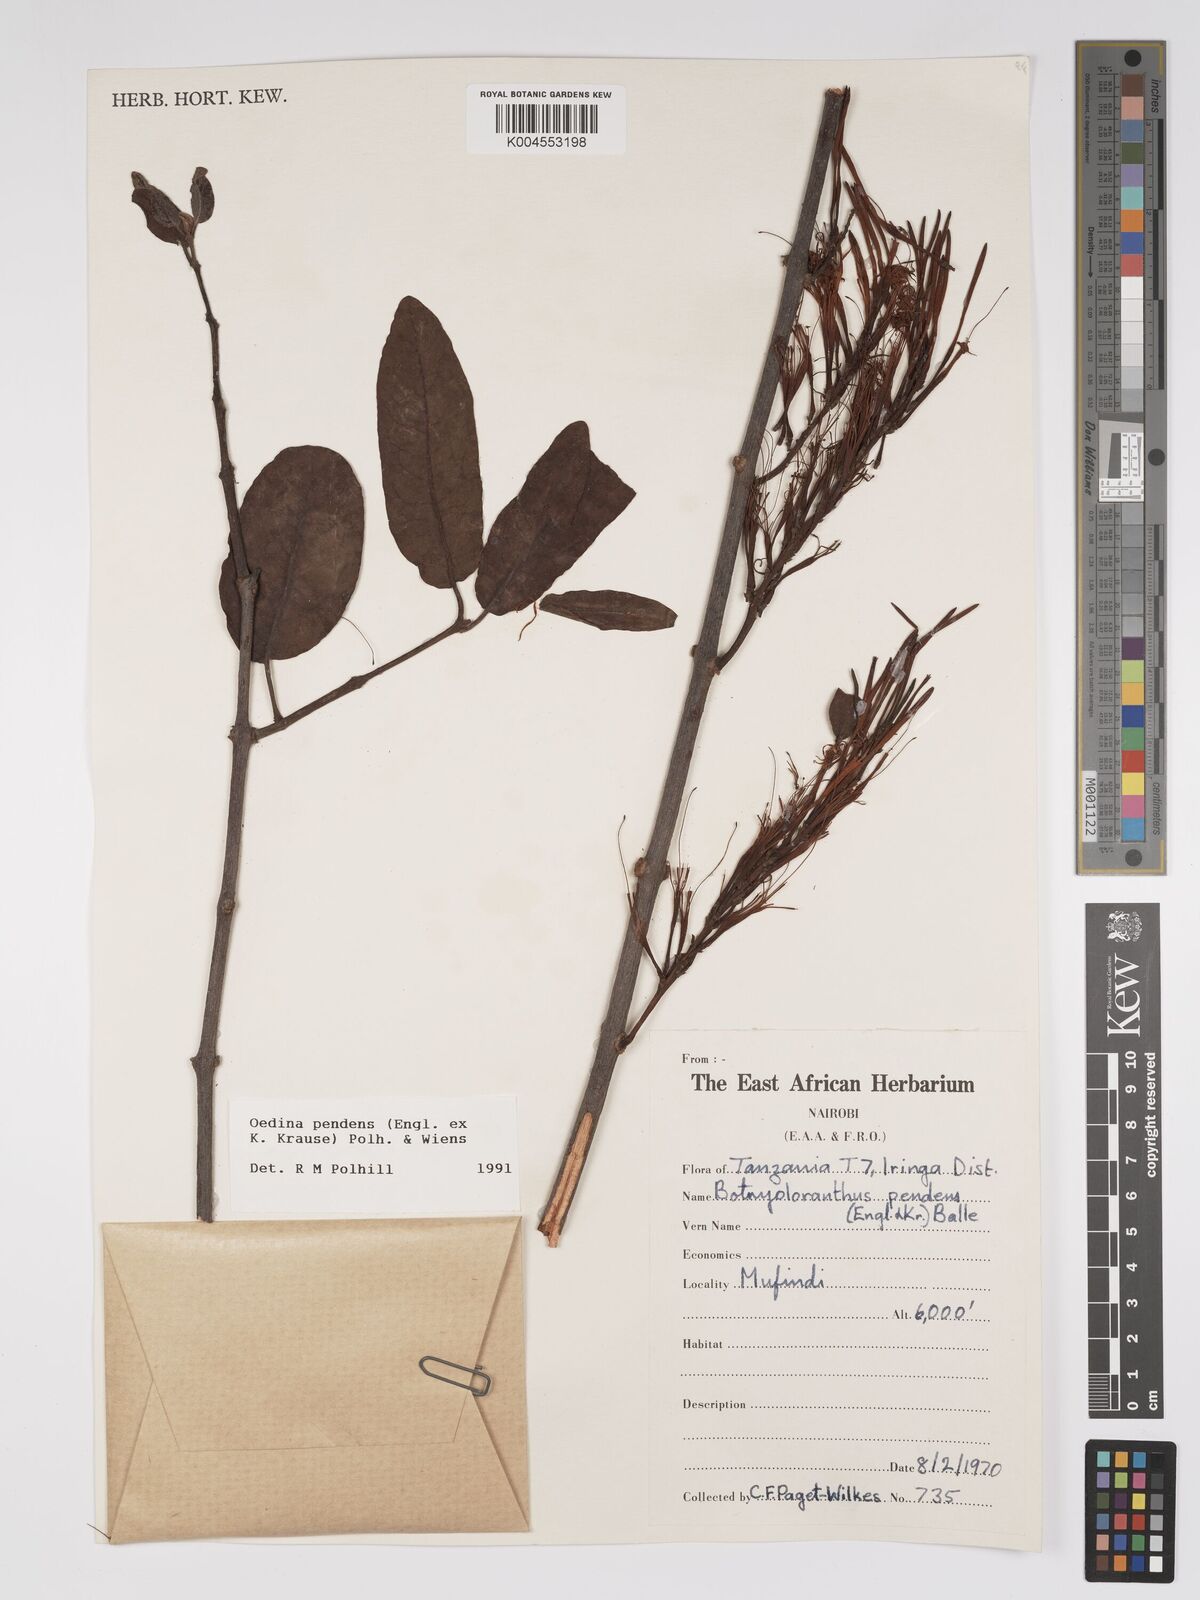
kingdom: Plantae
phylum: Tracheophyta
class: Magnoliopsida
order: Santalales
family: Loranthaceae
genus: Oedina
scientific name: Oedina pendens
